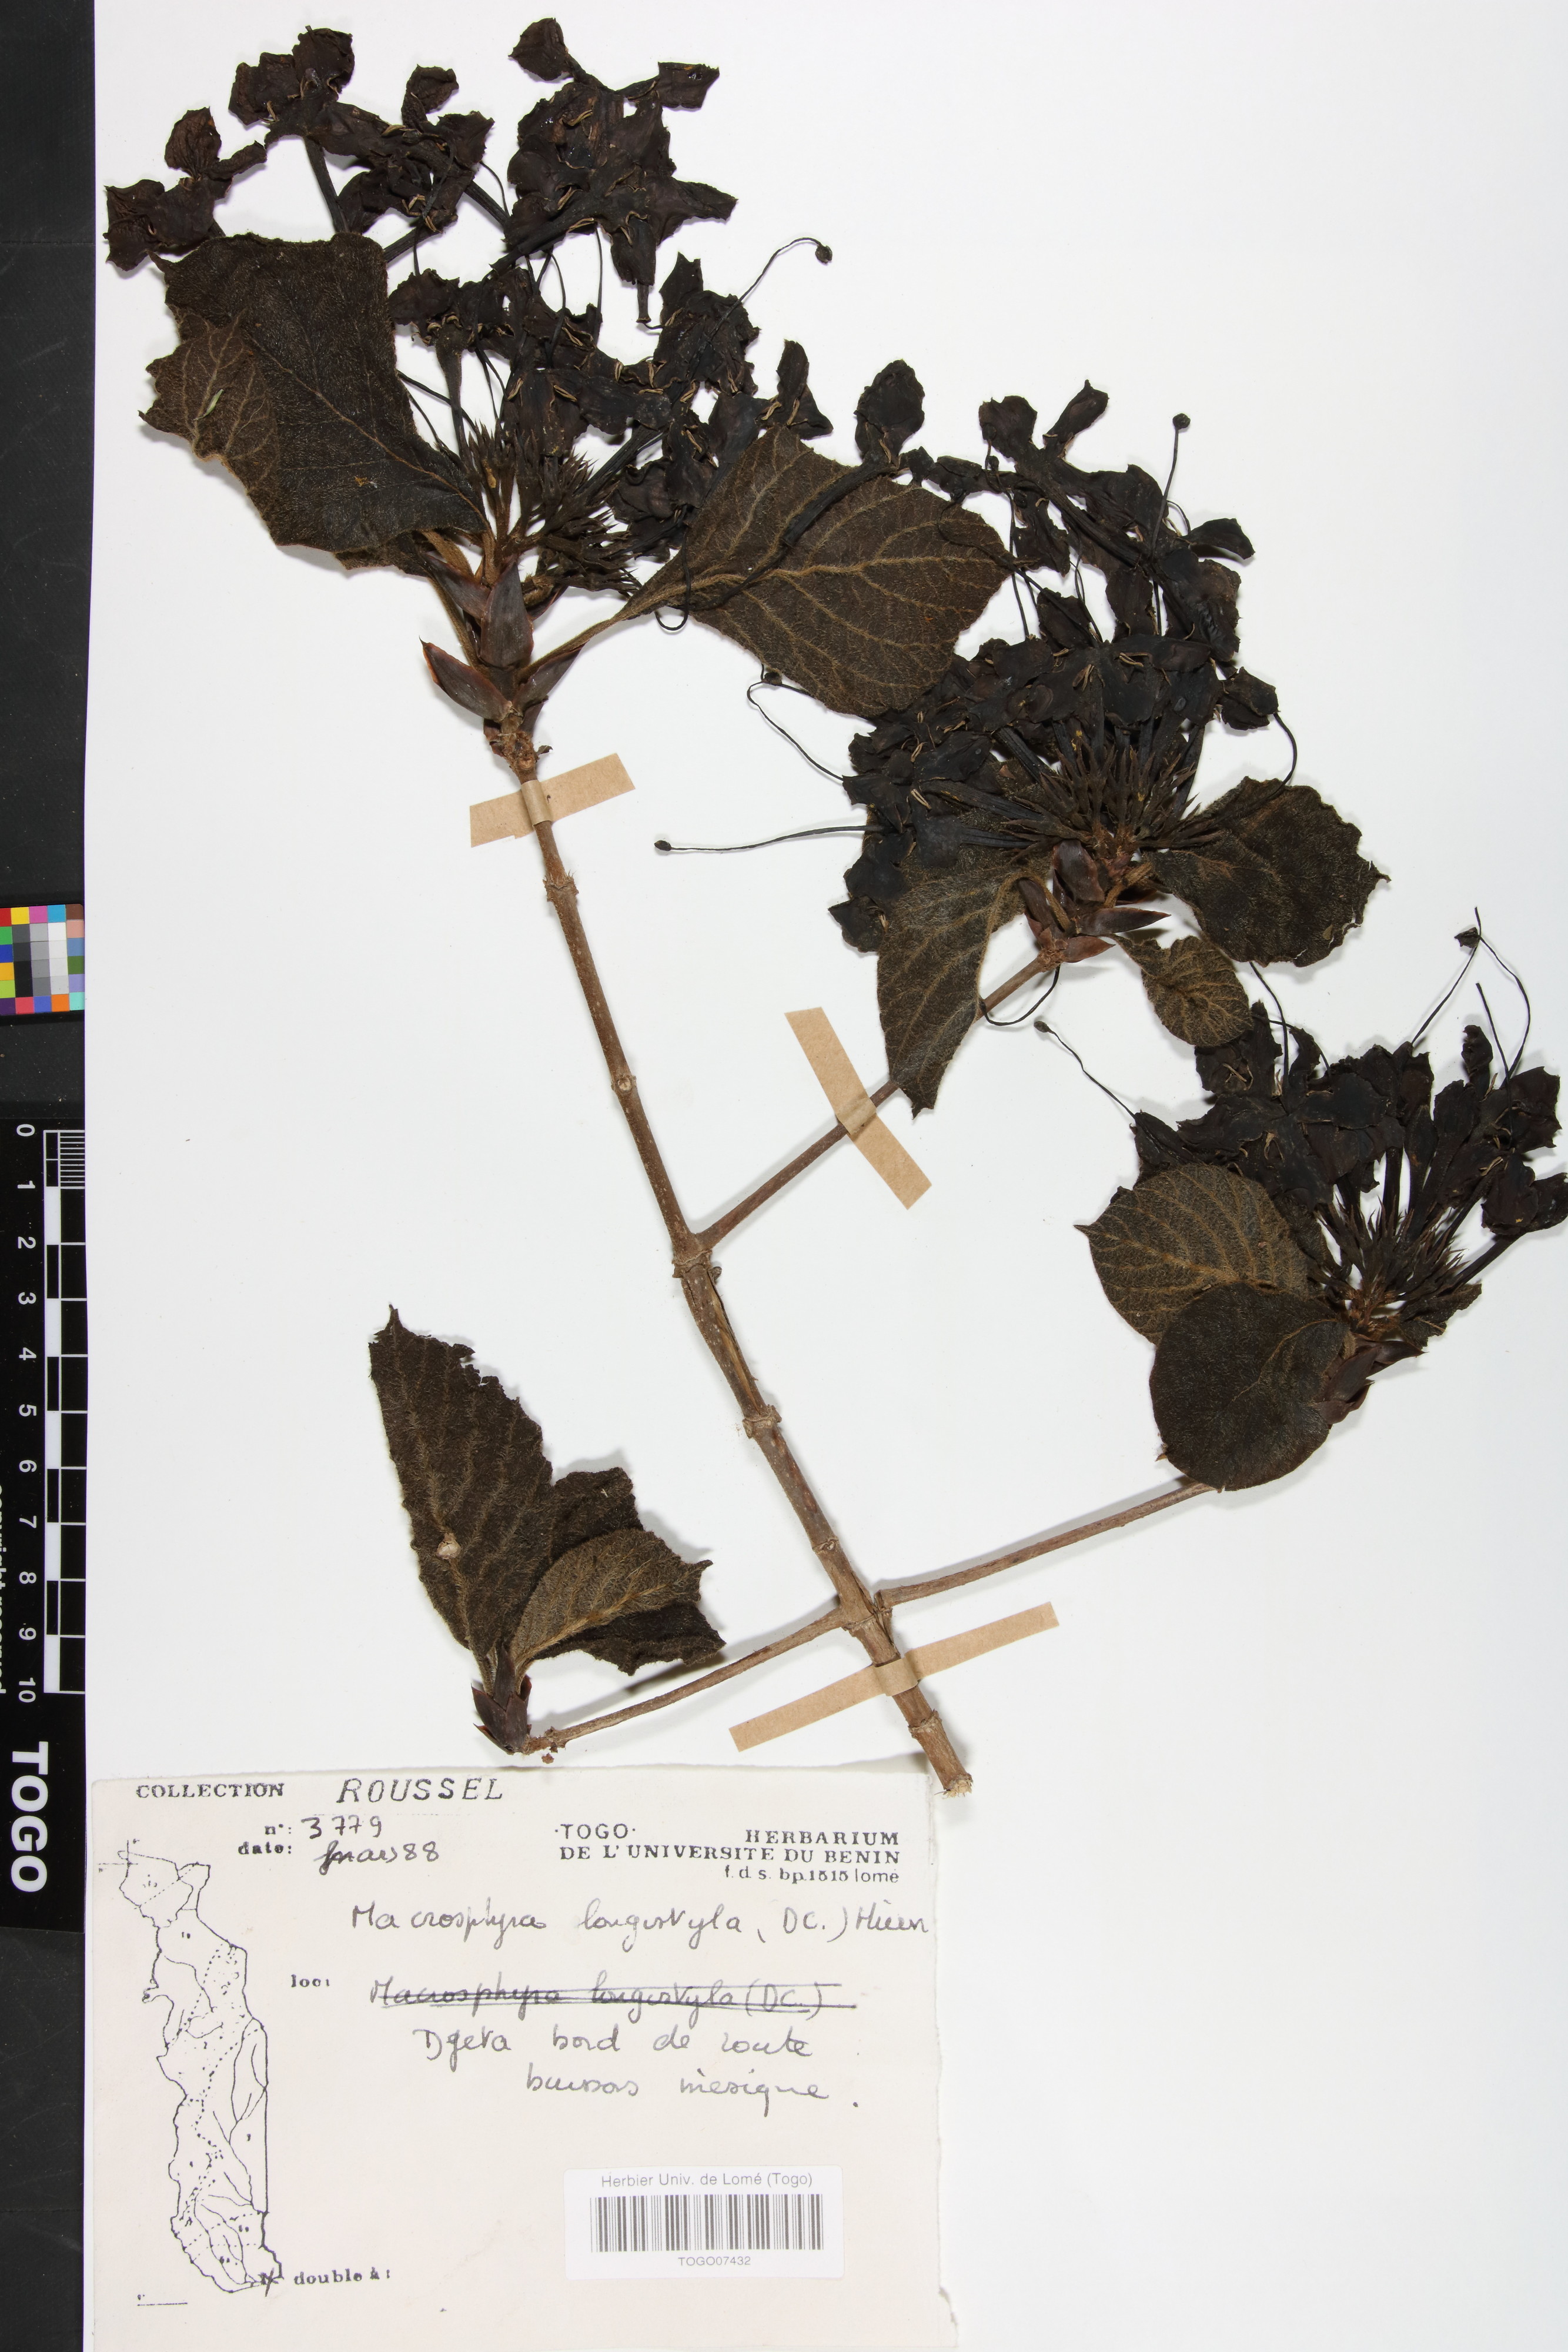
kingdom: Plantae
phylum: Tracheophyta
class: Magnoliopsida
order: Gentianales
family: Rubiaceae
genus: Macrosphyra
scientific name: Macrosphyra longistyla
